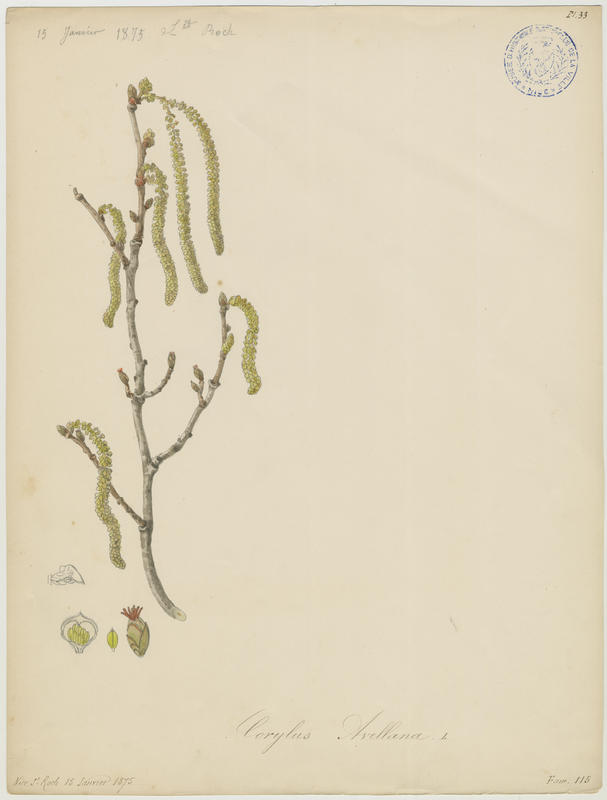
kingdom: Plantae
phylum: Tracheophyta
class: Magnoliopsida
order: Fagales
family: Betulaceae
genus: Corylus
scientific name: Corylus avellana
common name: European hazel
